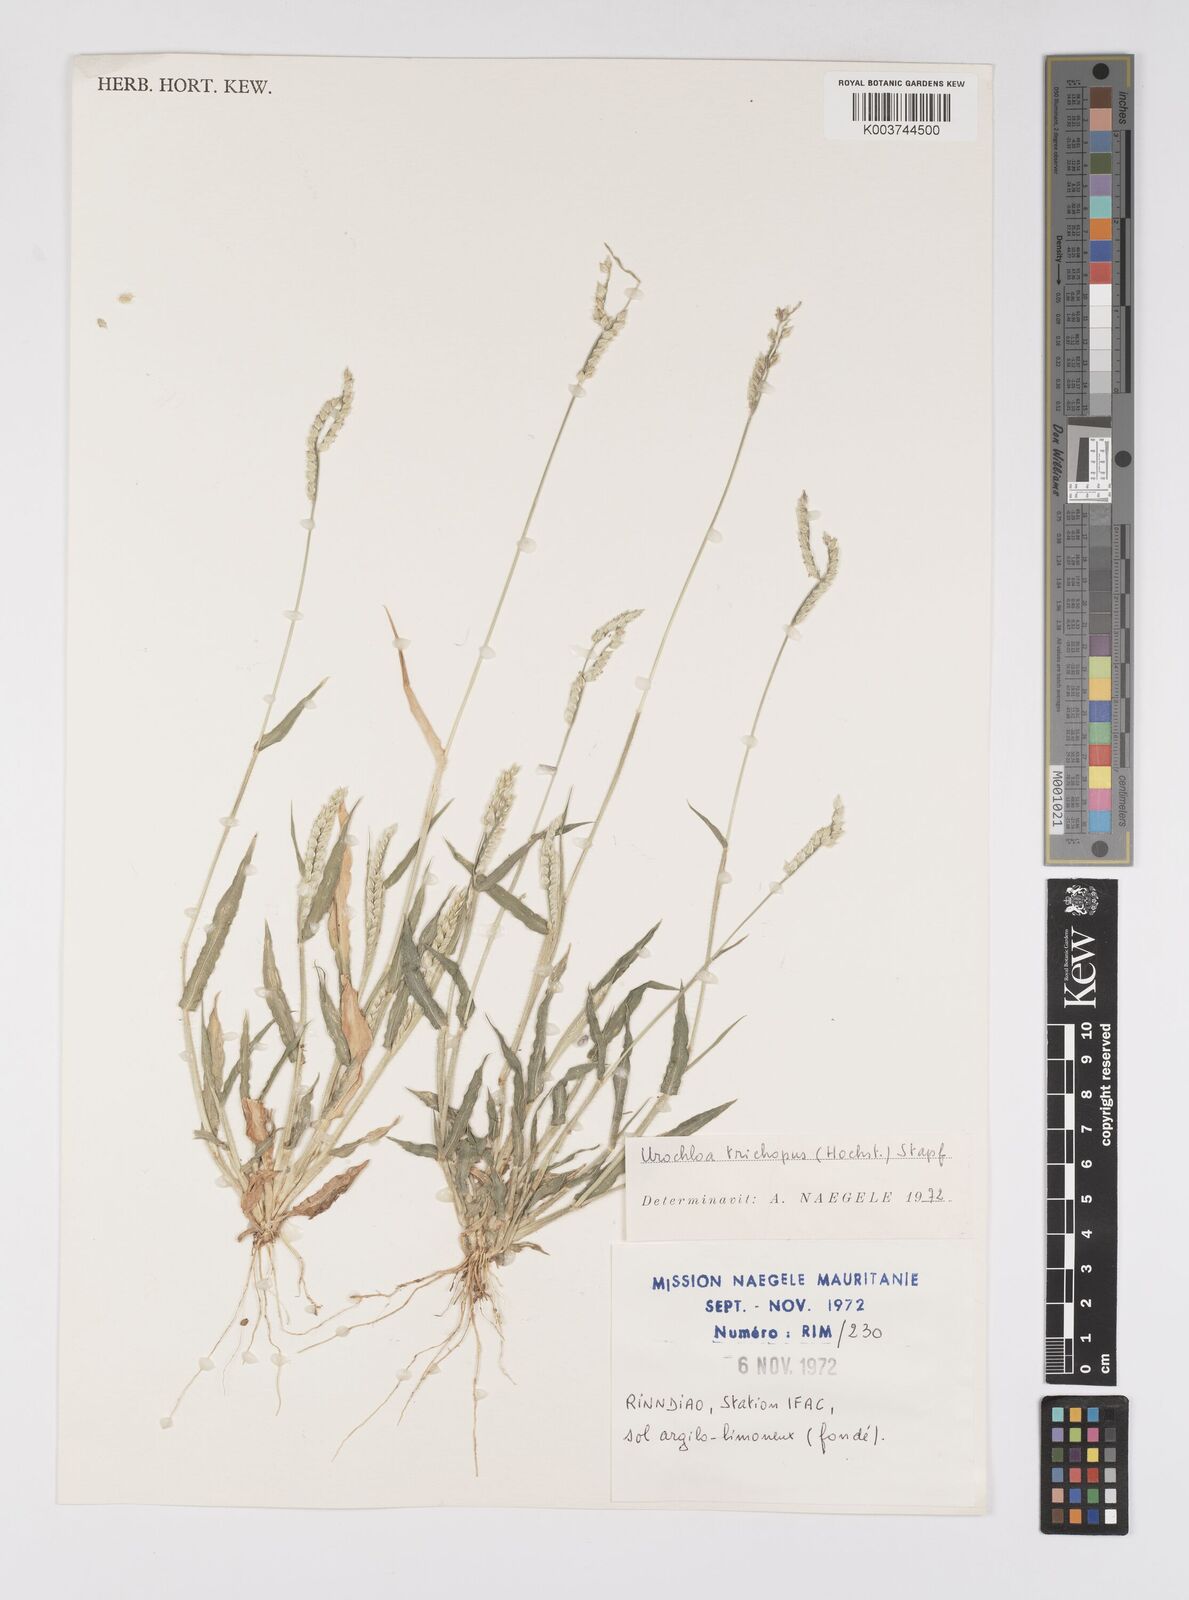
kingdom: Plantae
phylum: Tracheophyta
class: Liliopsida
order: Poales
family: Poaceae
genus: Urochloa
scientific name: Urochloa trichopus
